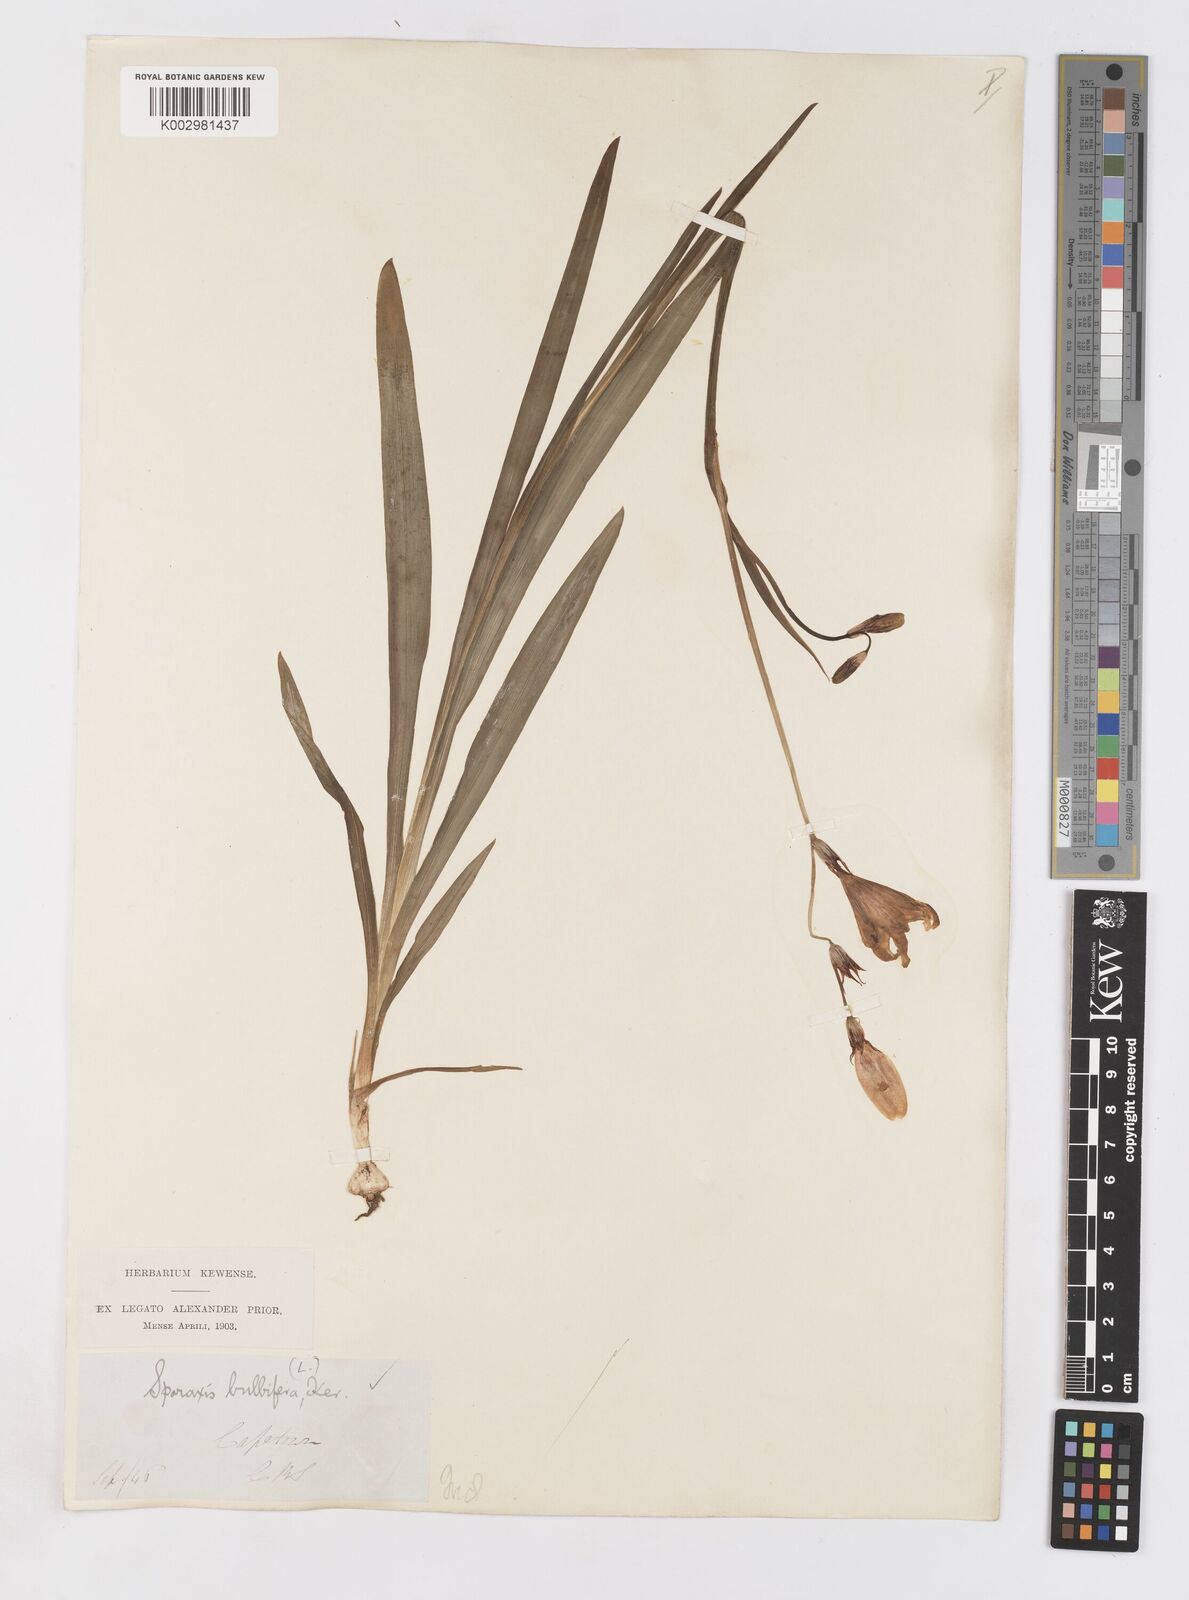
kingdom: Plantae
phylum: Tracheophyta
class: Liliopsida
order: Asparagales
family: Iridaceae
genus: Sparaxis
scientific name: Sparaxis bulbifera
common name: Harlequin-flower
